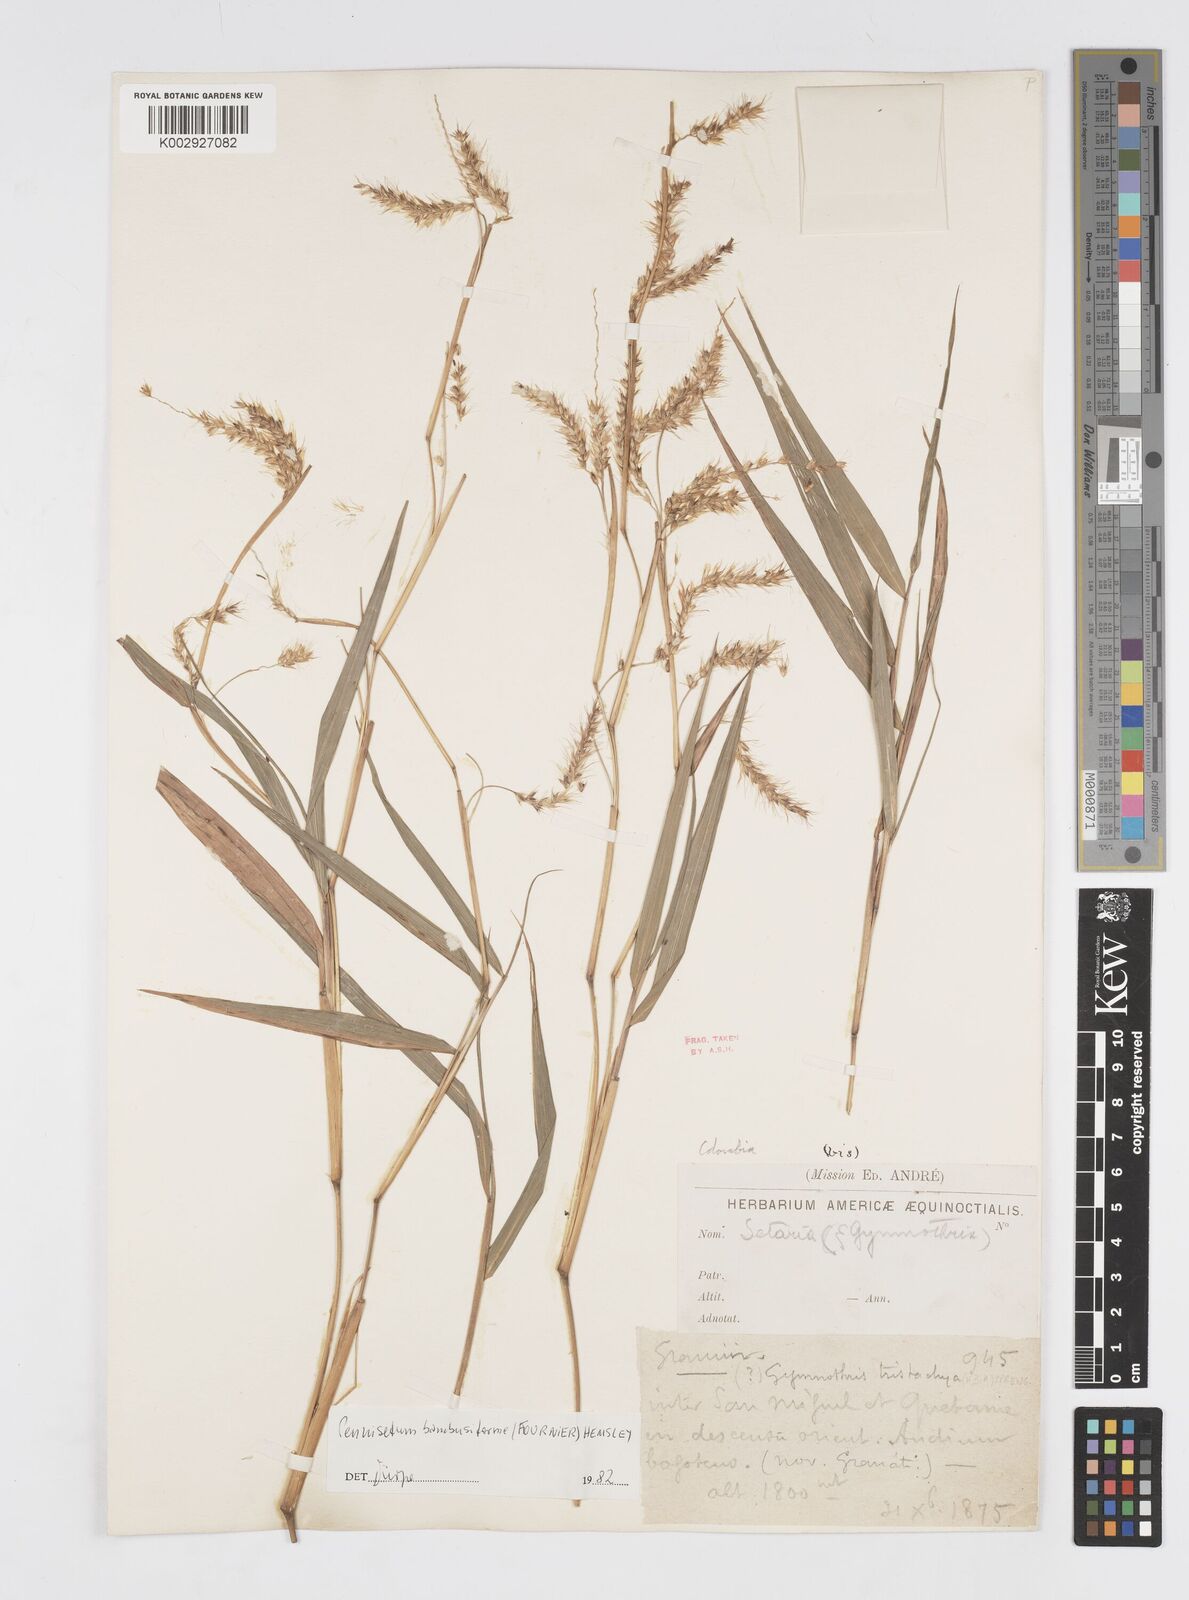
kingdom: Plantae
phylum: Tracheophyta
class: Liliopsida
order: Poales
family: Poaceae
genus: Cenchrus
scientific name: Cenchrus tristachyus
